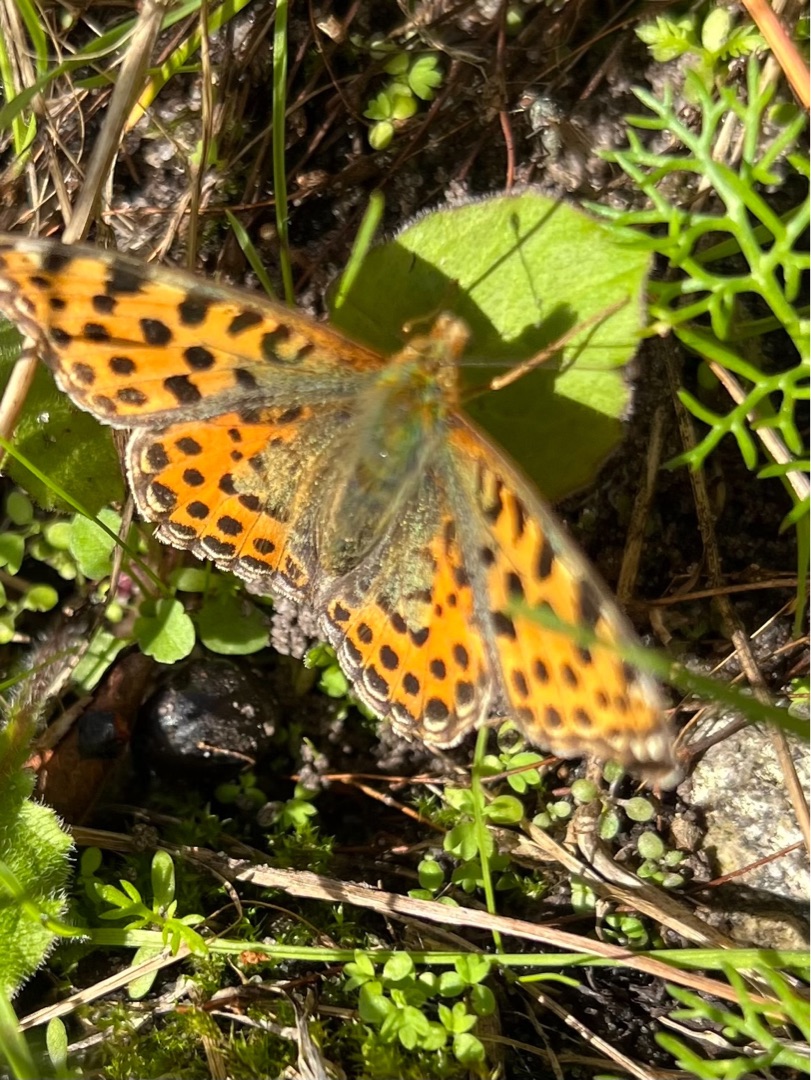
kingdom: Animalia
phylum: Arthropoda
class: Insecta
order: Lepidoptera
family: Nymphalidae
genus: Issoria
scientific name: Issoria lathonia
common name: Storplettet perlemorsommerfugl
